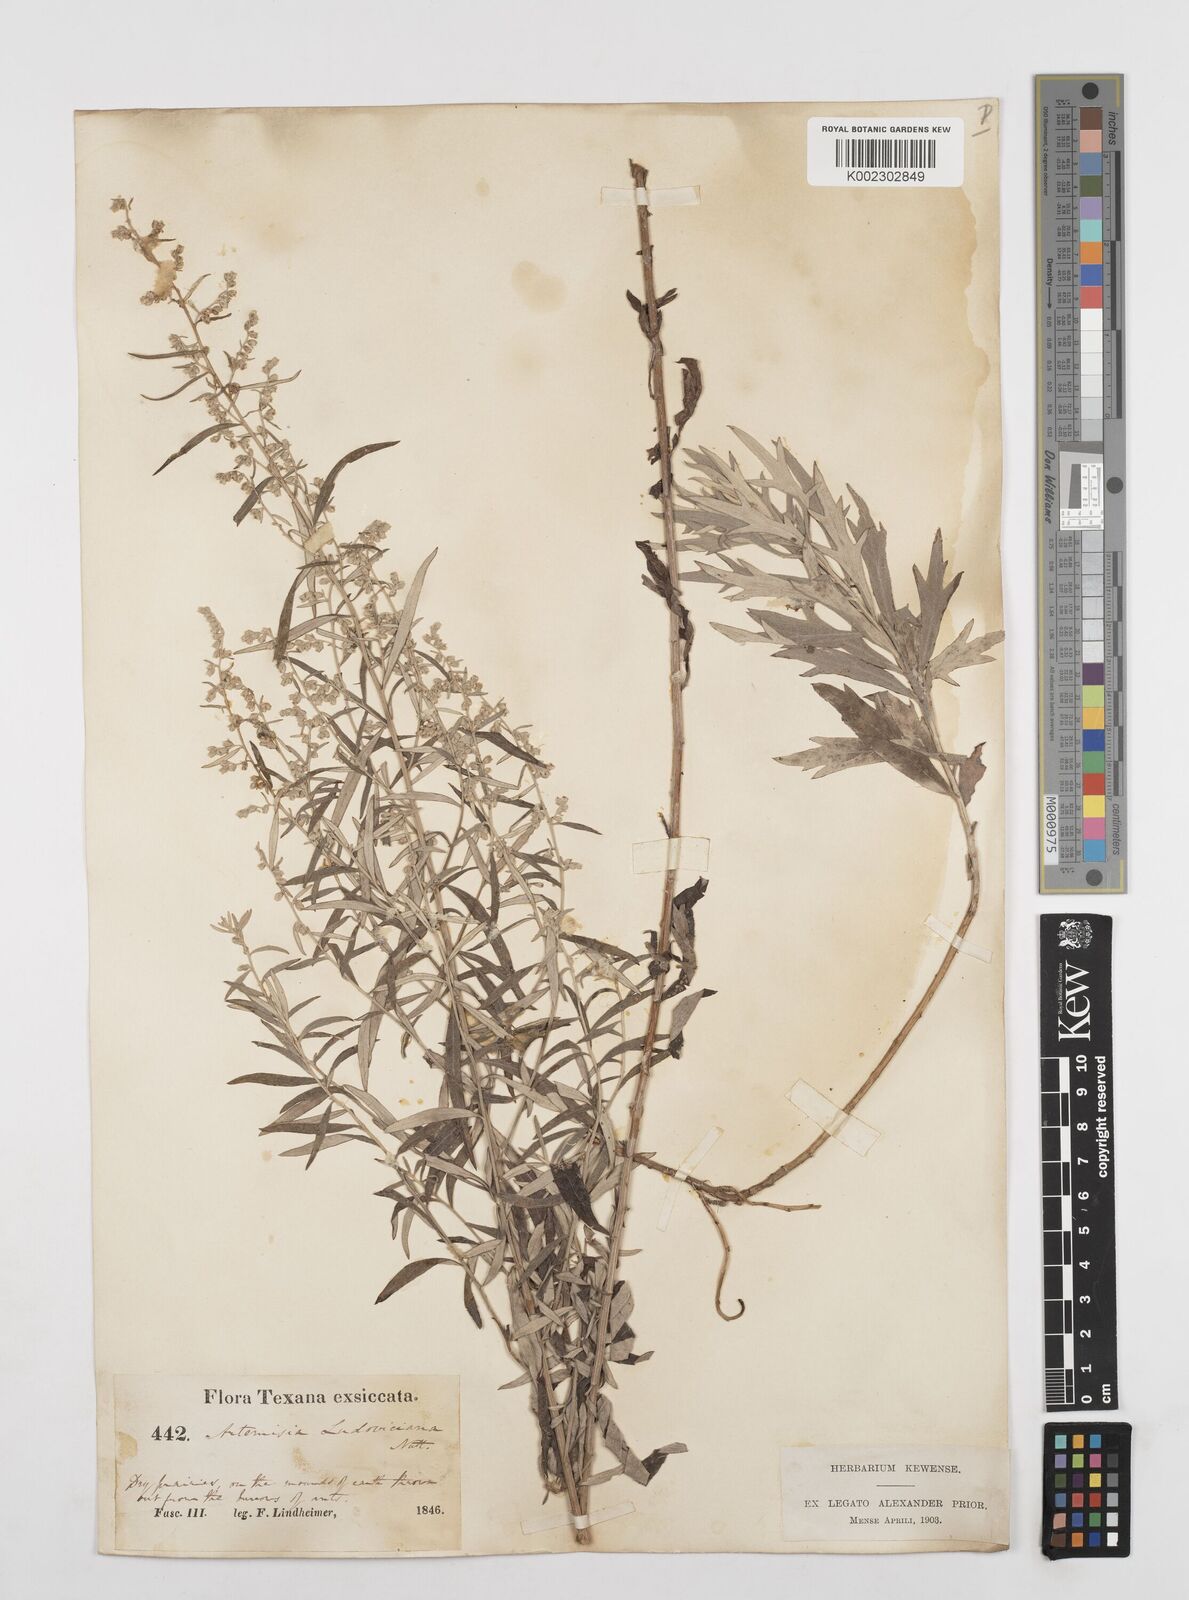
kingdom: Plantae
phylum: Tracheophyta
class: Magnoliopsida
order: Asterales
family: Asteraceae
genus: Artemisia
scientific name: Artemisia ludoviciana
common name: Western mugwort
